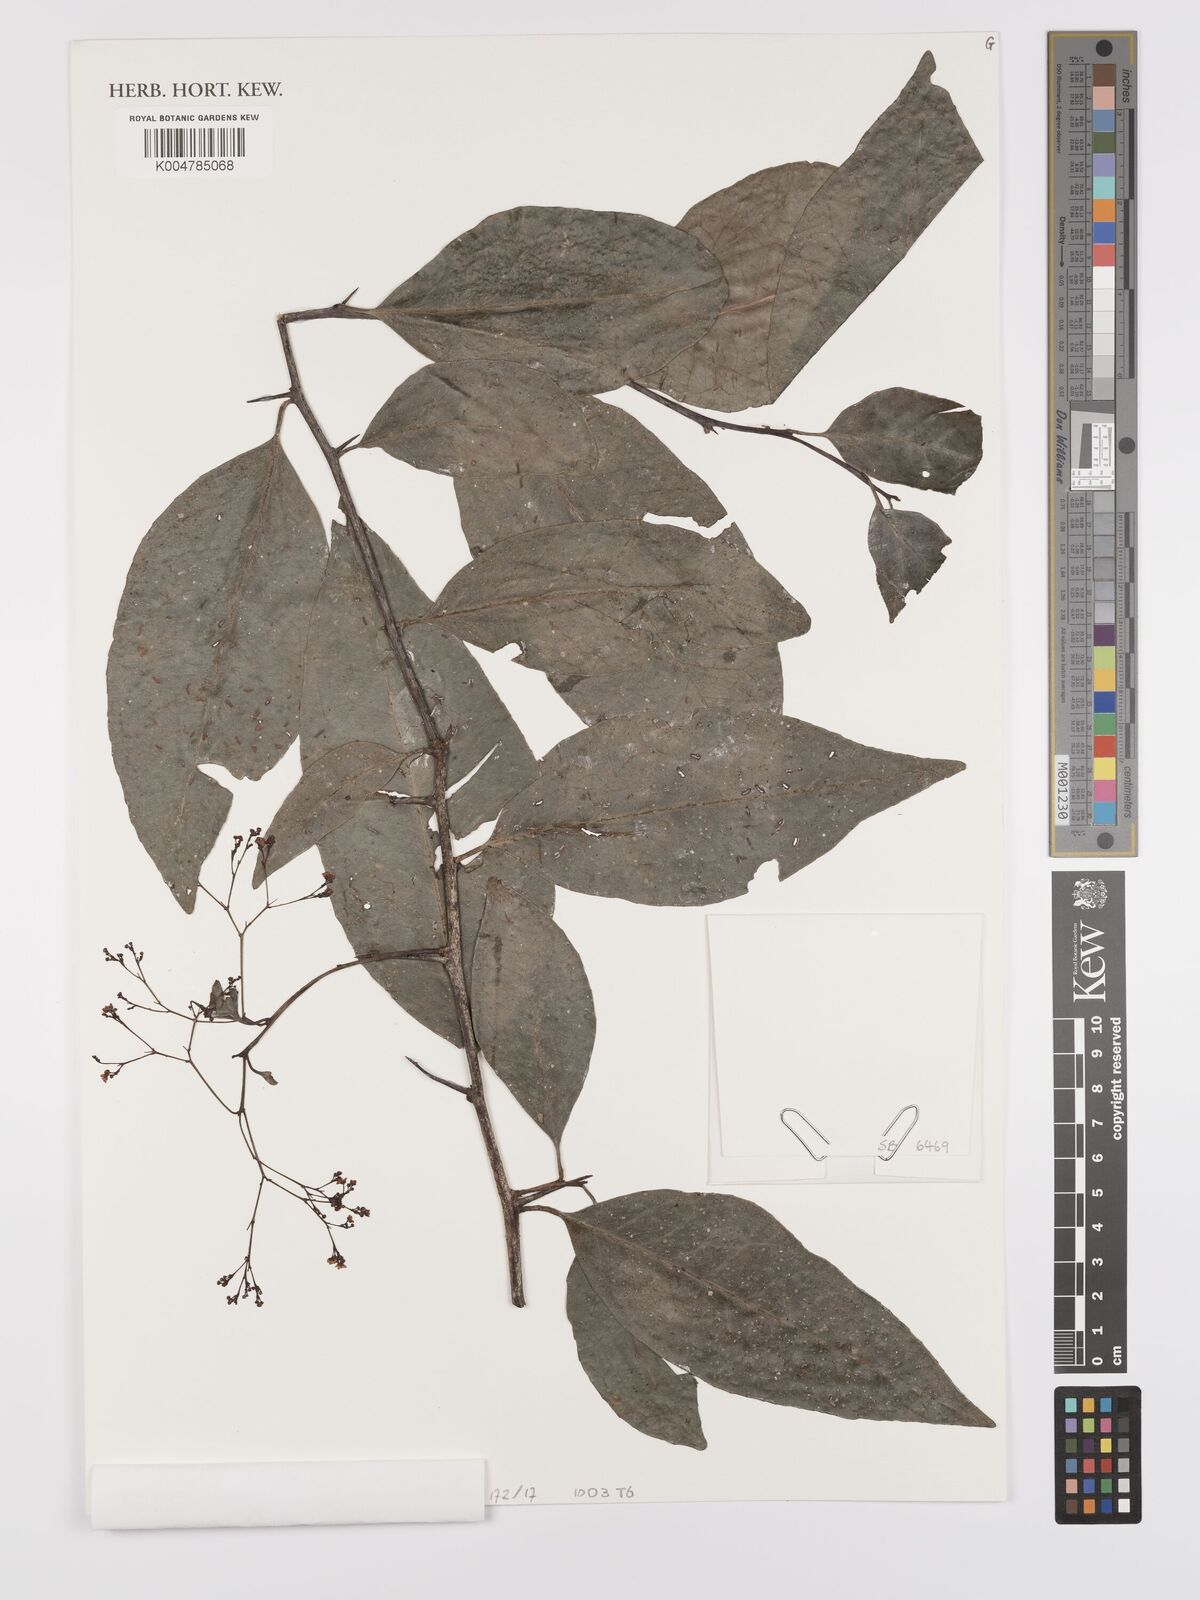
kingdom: Plantae
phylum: Tracheophyta
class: Magnoliopsida
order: Celastrales
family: Celastraceae
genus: Gymnosporia
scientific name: Gymnosporia gracilipes
